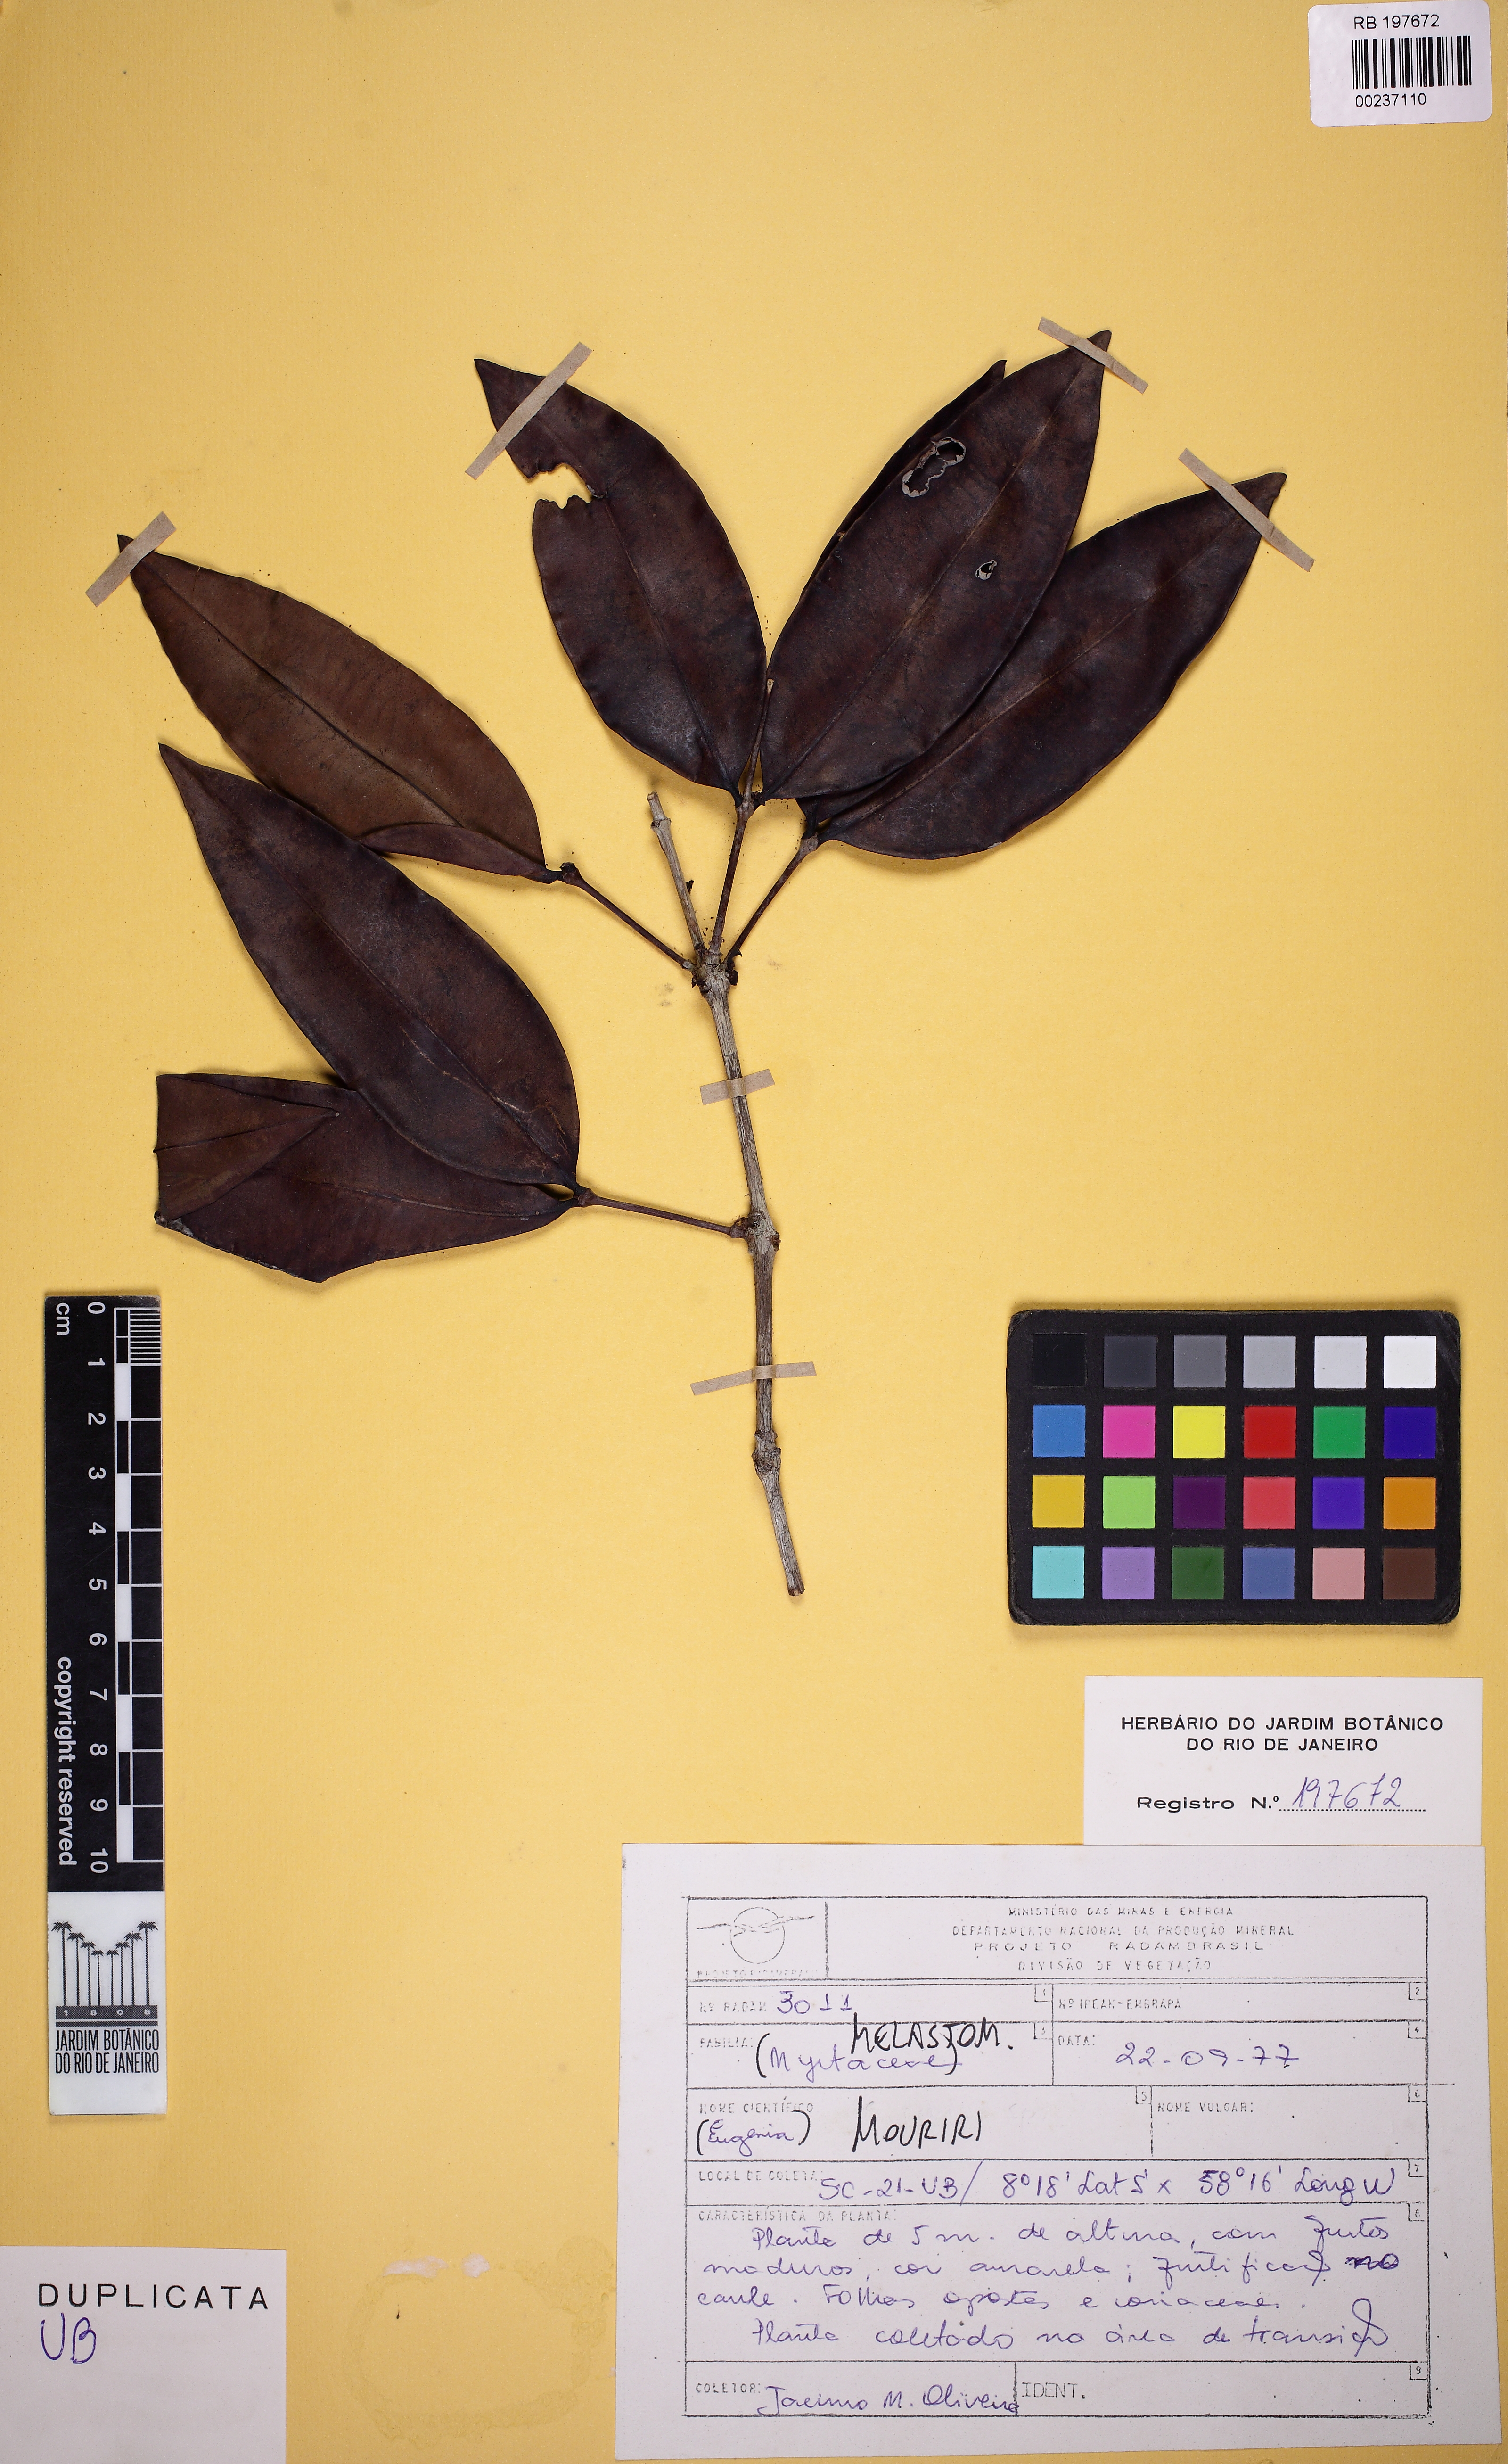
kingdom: Plantae
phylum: Tracheophyta
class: Magnoliopsida
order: Myrtales
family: Melastomataceae
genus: Mouriri
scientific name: Mouriri apiranga
